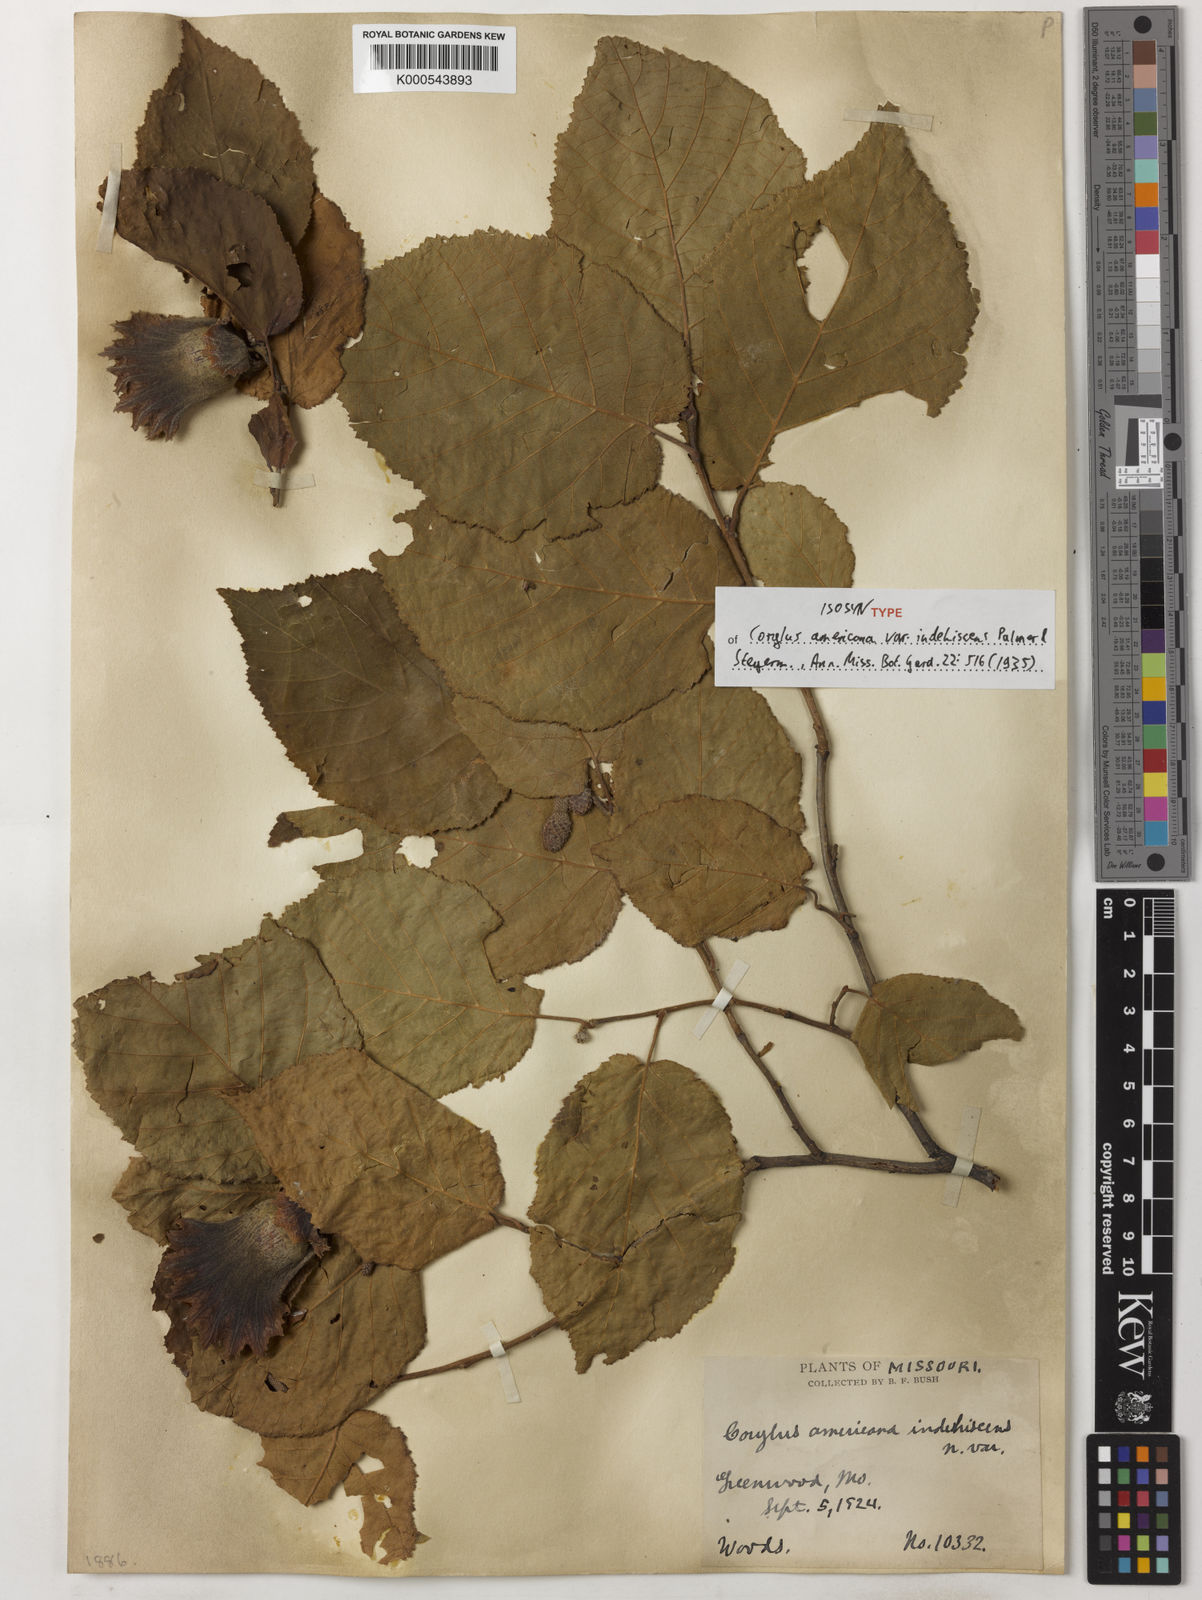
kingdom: Plantae
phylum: Tracheophyta
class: Magnoliopsida
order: Fagales
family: Betulaceae
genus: Corylus
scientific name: Corylus americana
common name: American hazel
